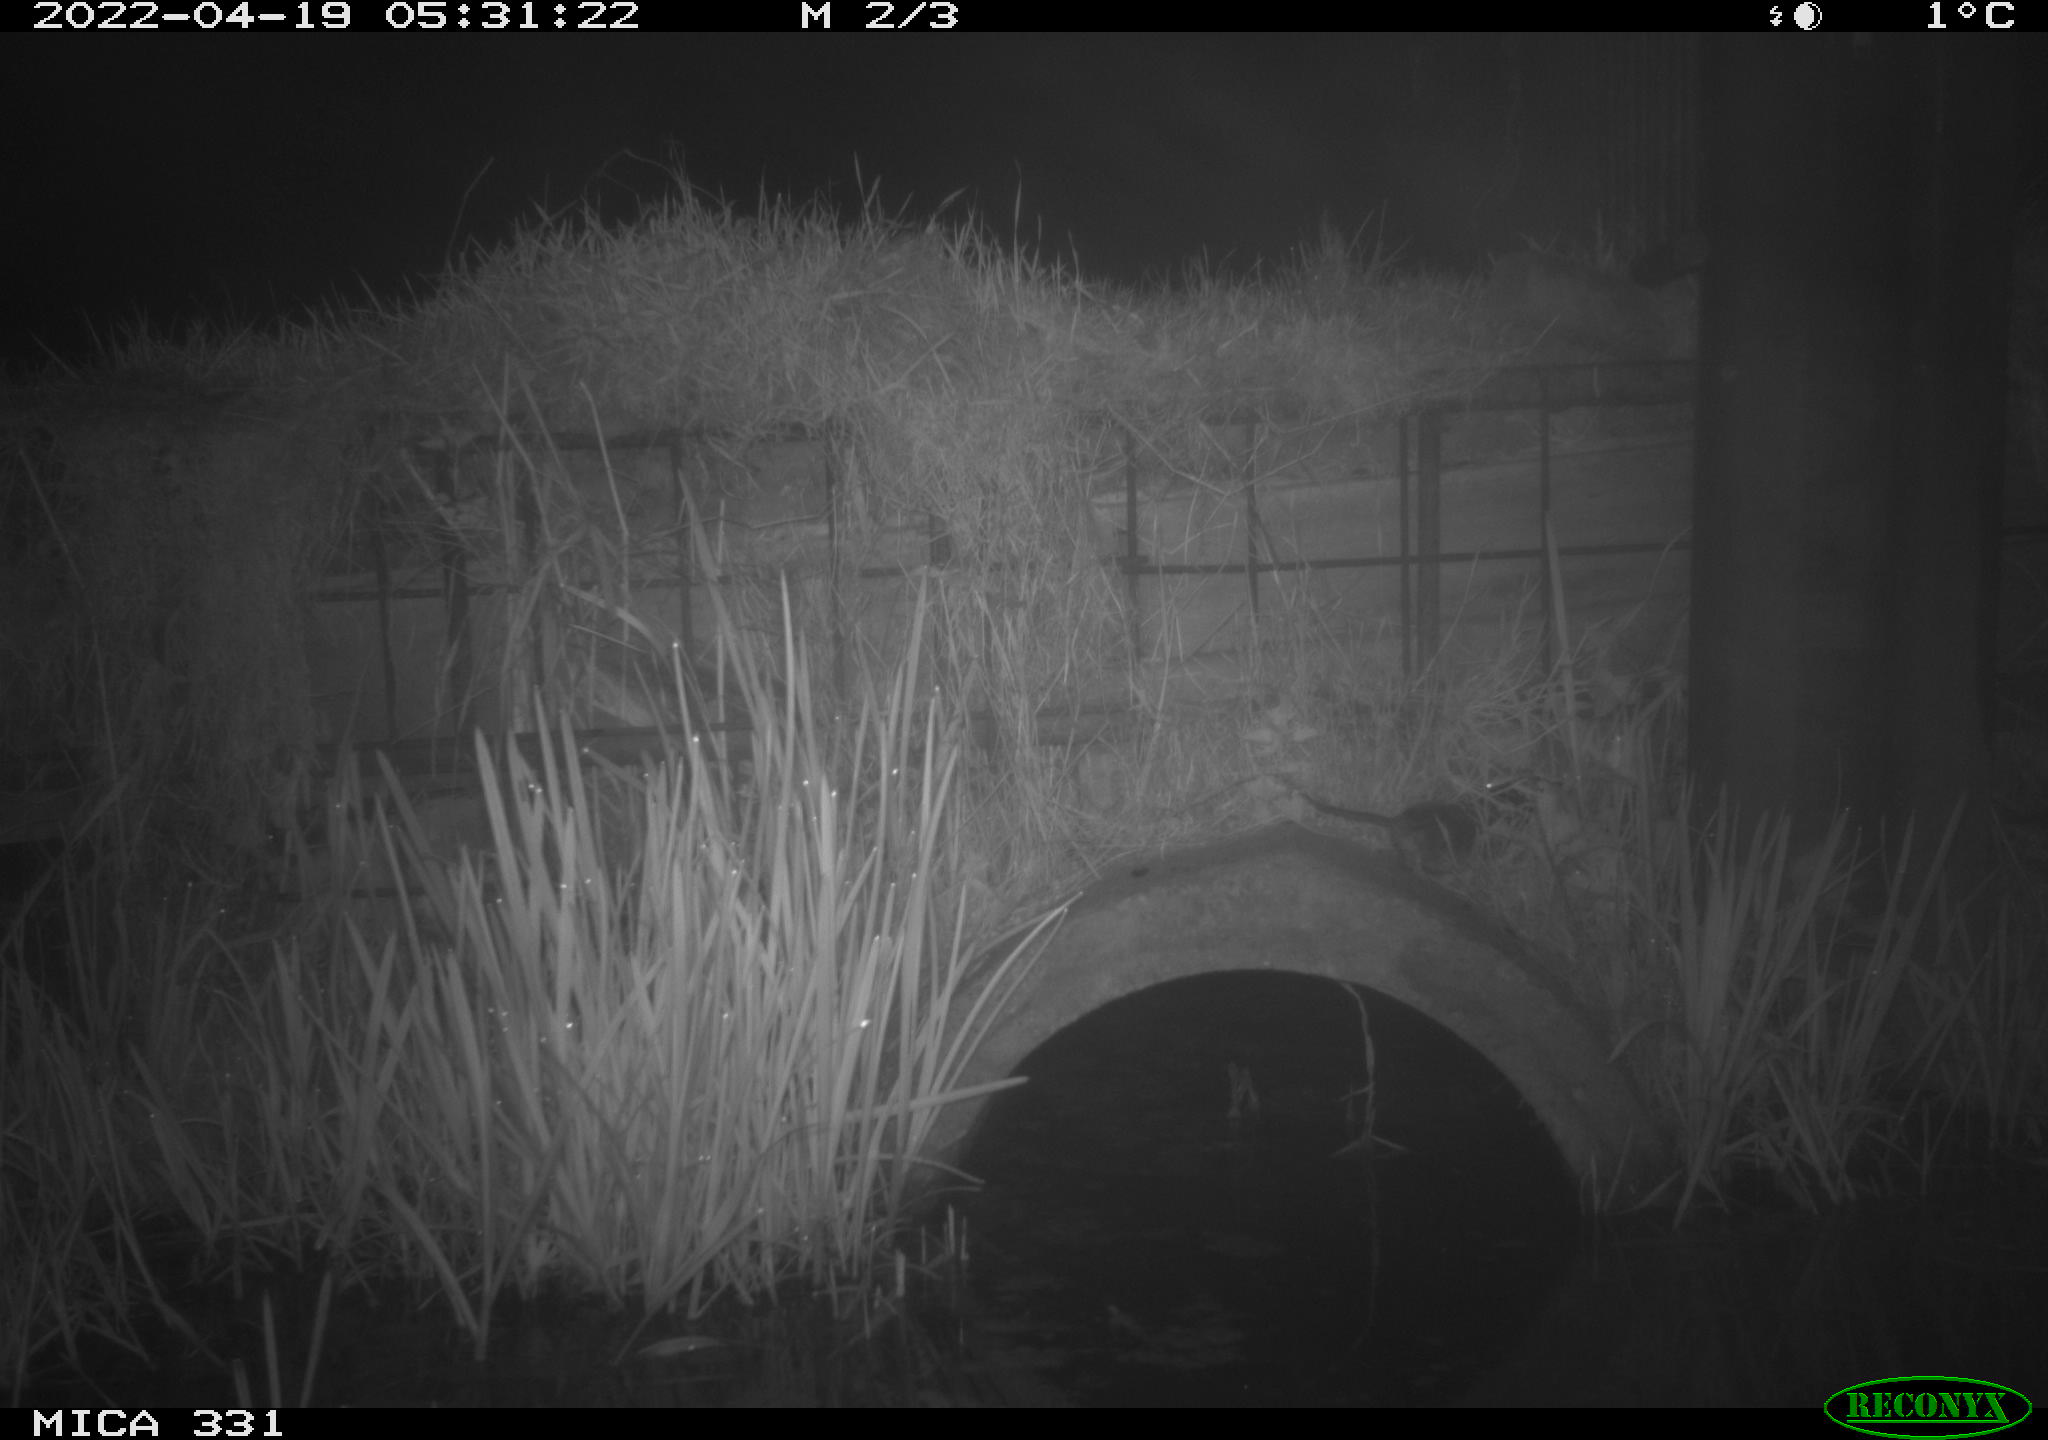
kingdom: Animalia
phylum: Chordata
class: Mammalia
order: Rodentia
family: Muridae
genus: Rattus
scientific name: Rattus norvegicus
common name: Brown rat
